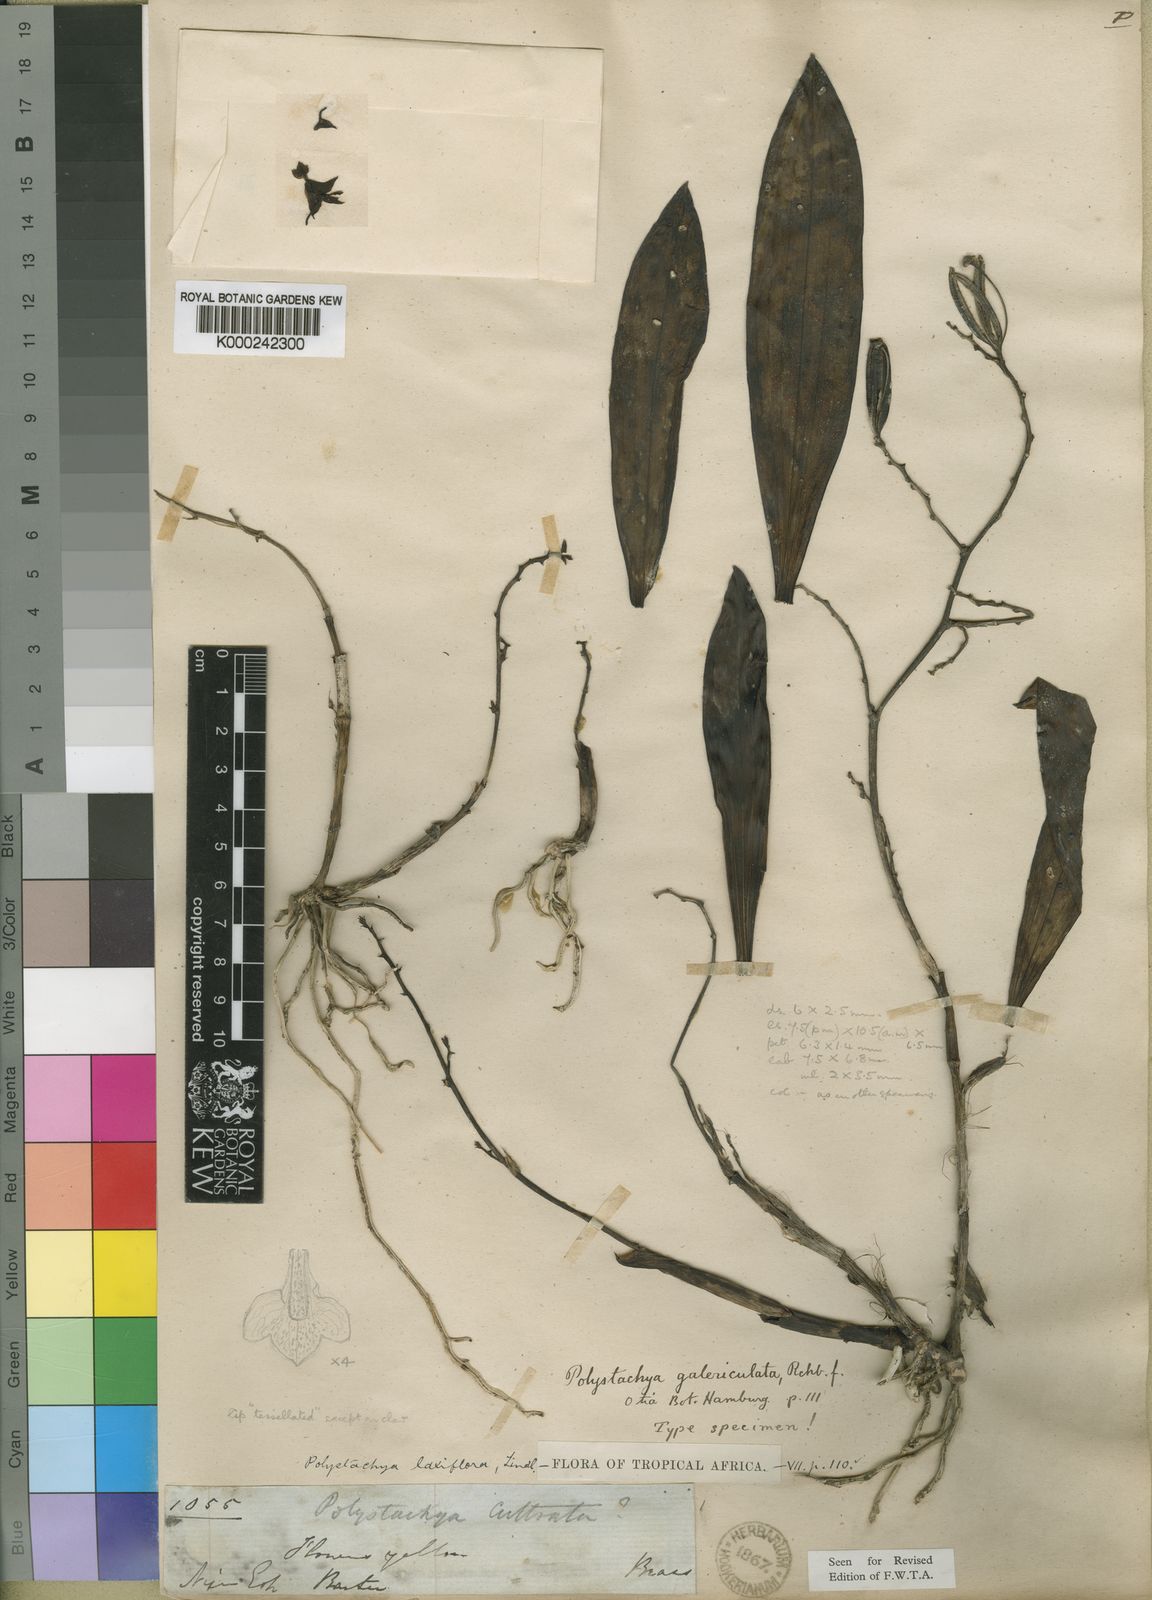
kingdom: Plantae
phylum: Tracheophyta
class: Liliopsida
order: Asparagales
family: Orchidaceae
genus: Polystachya
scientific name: Polystachya laxiflora
